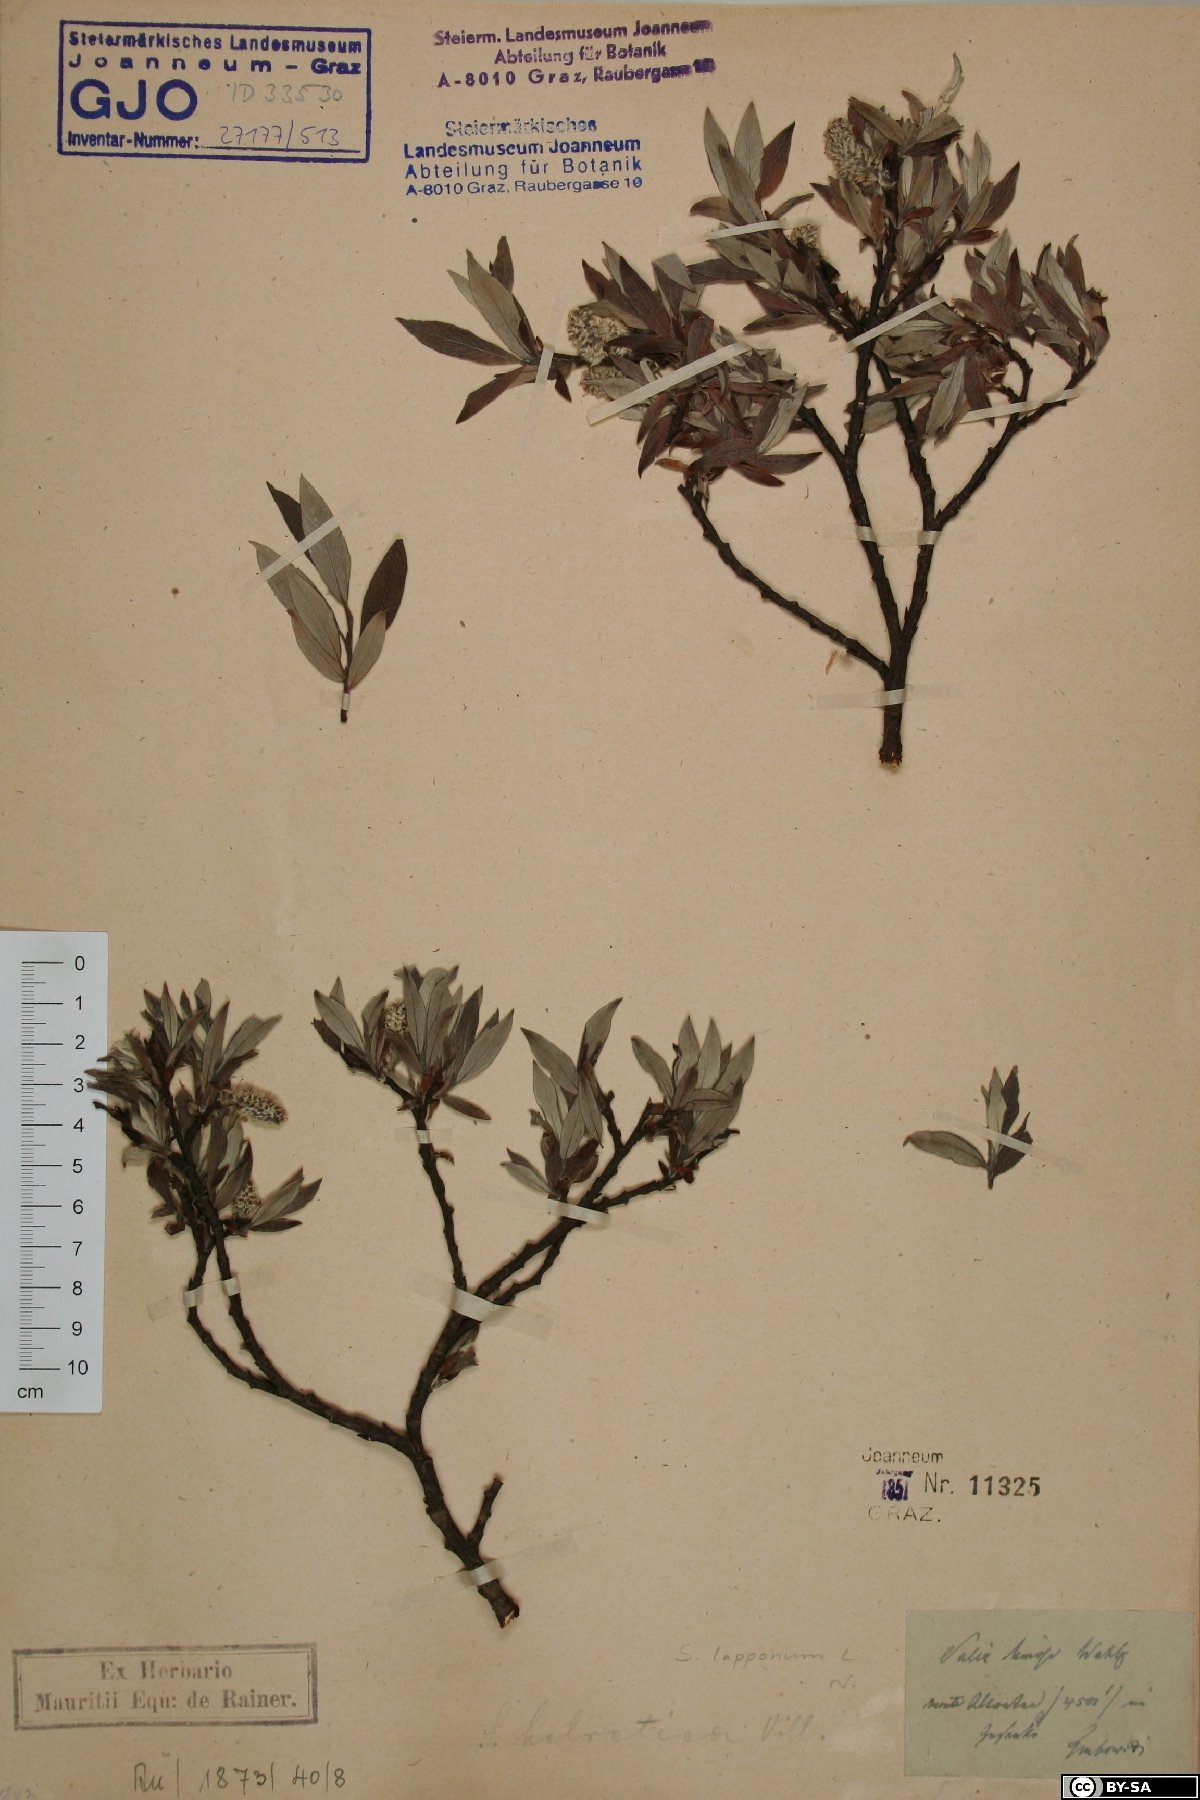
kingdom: Plantae
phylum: Tracheophyta
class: Magnoliopsida
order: Malpighiales
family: Salicaceae
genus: Salix
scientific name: Salix lapponum
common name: Downy willow
